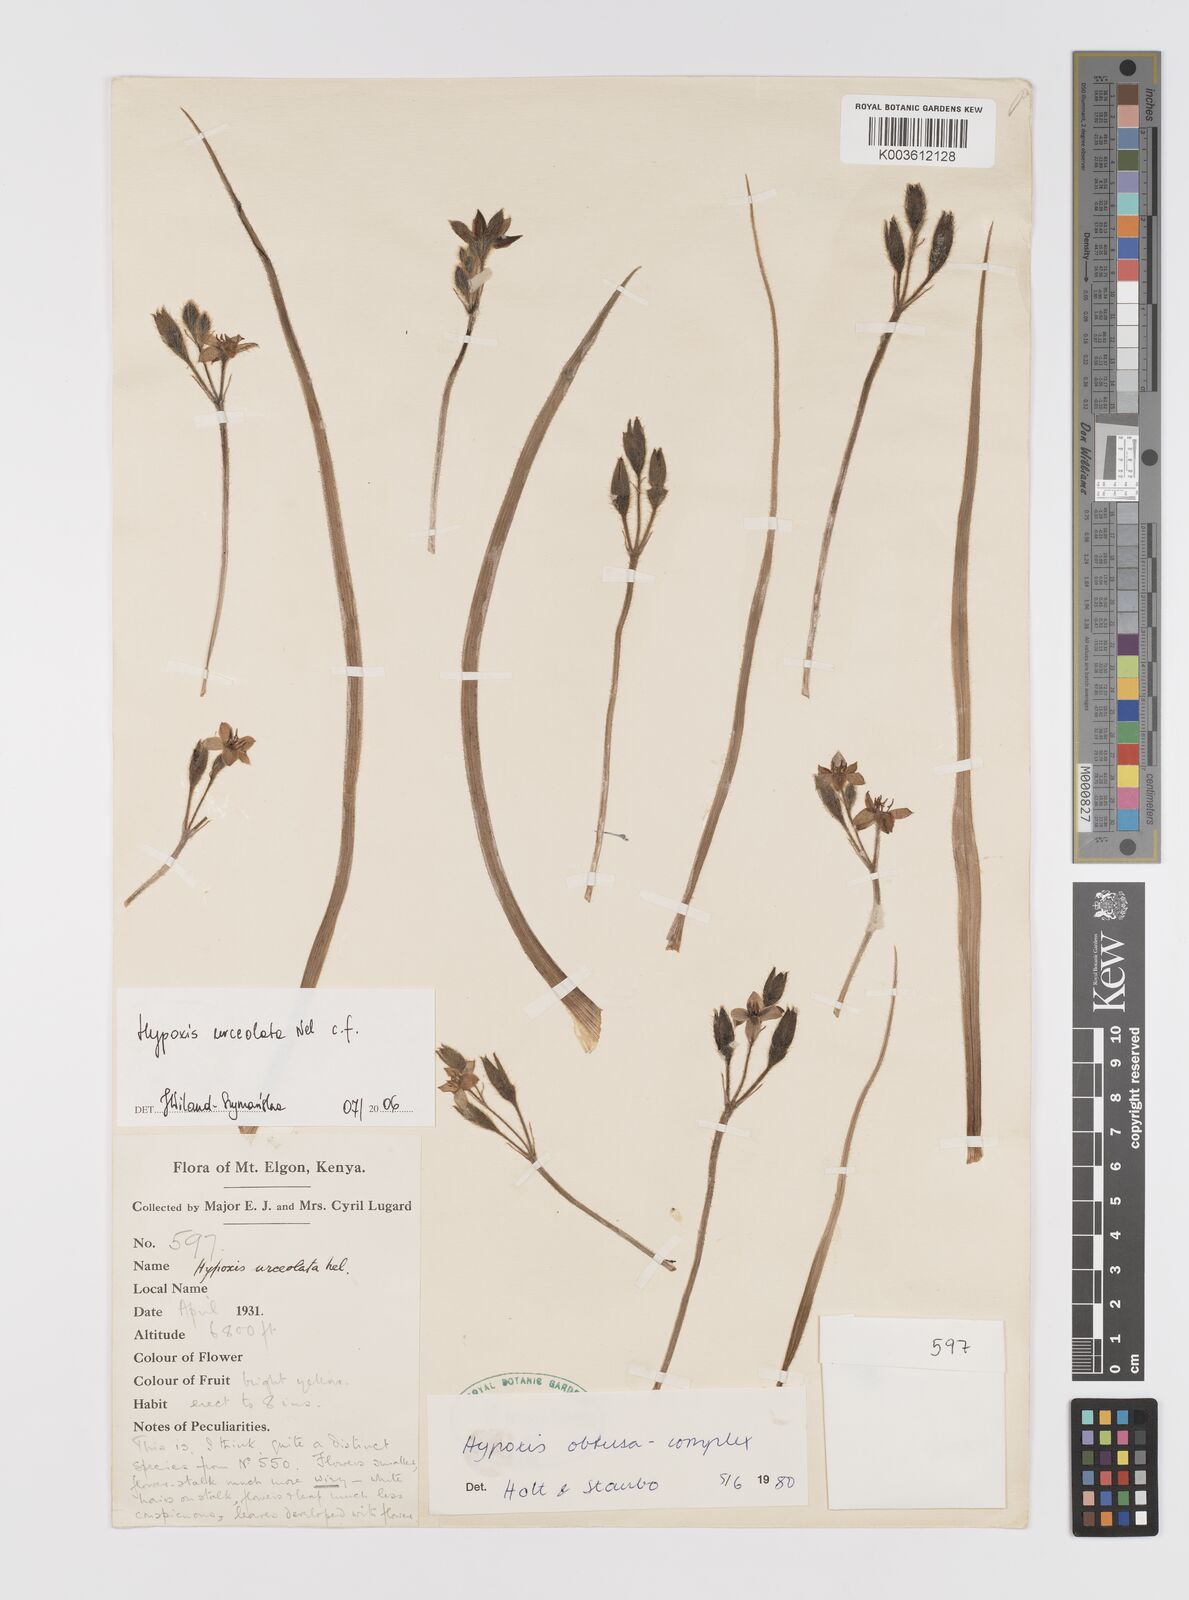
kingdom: Plantae
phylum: Tracheophyta
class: Liliopsida
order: Asparagales
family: Hypoxidaceae
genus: Hypoxis
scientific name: Hypoxis urceolata
